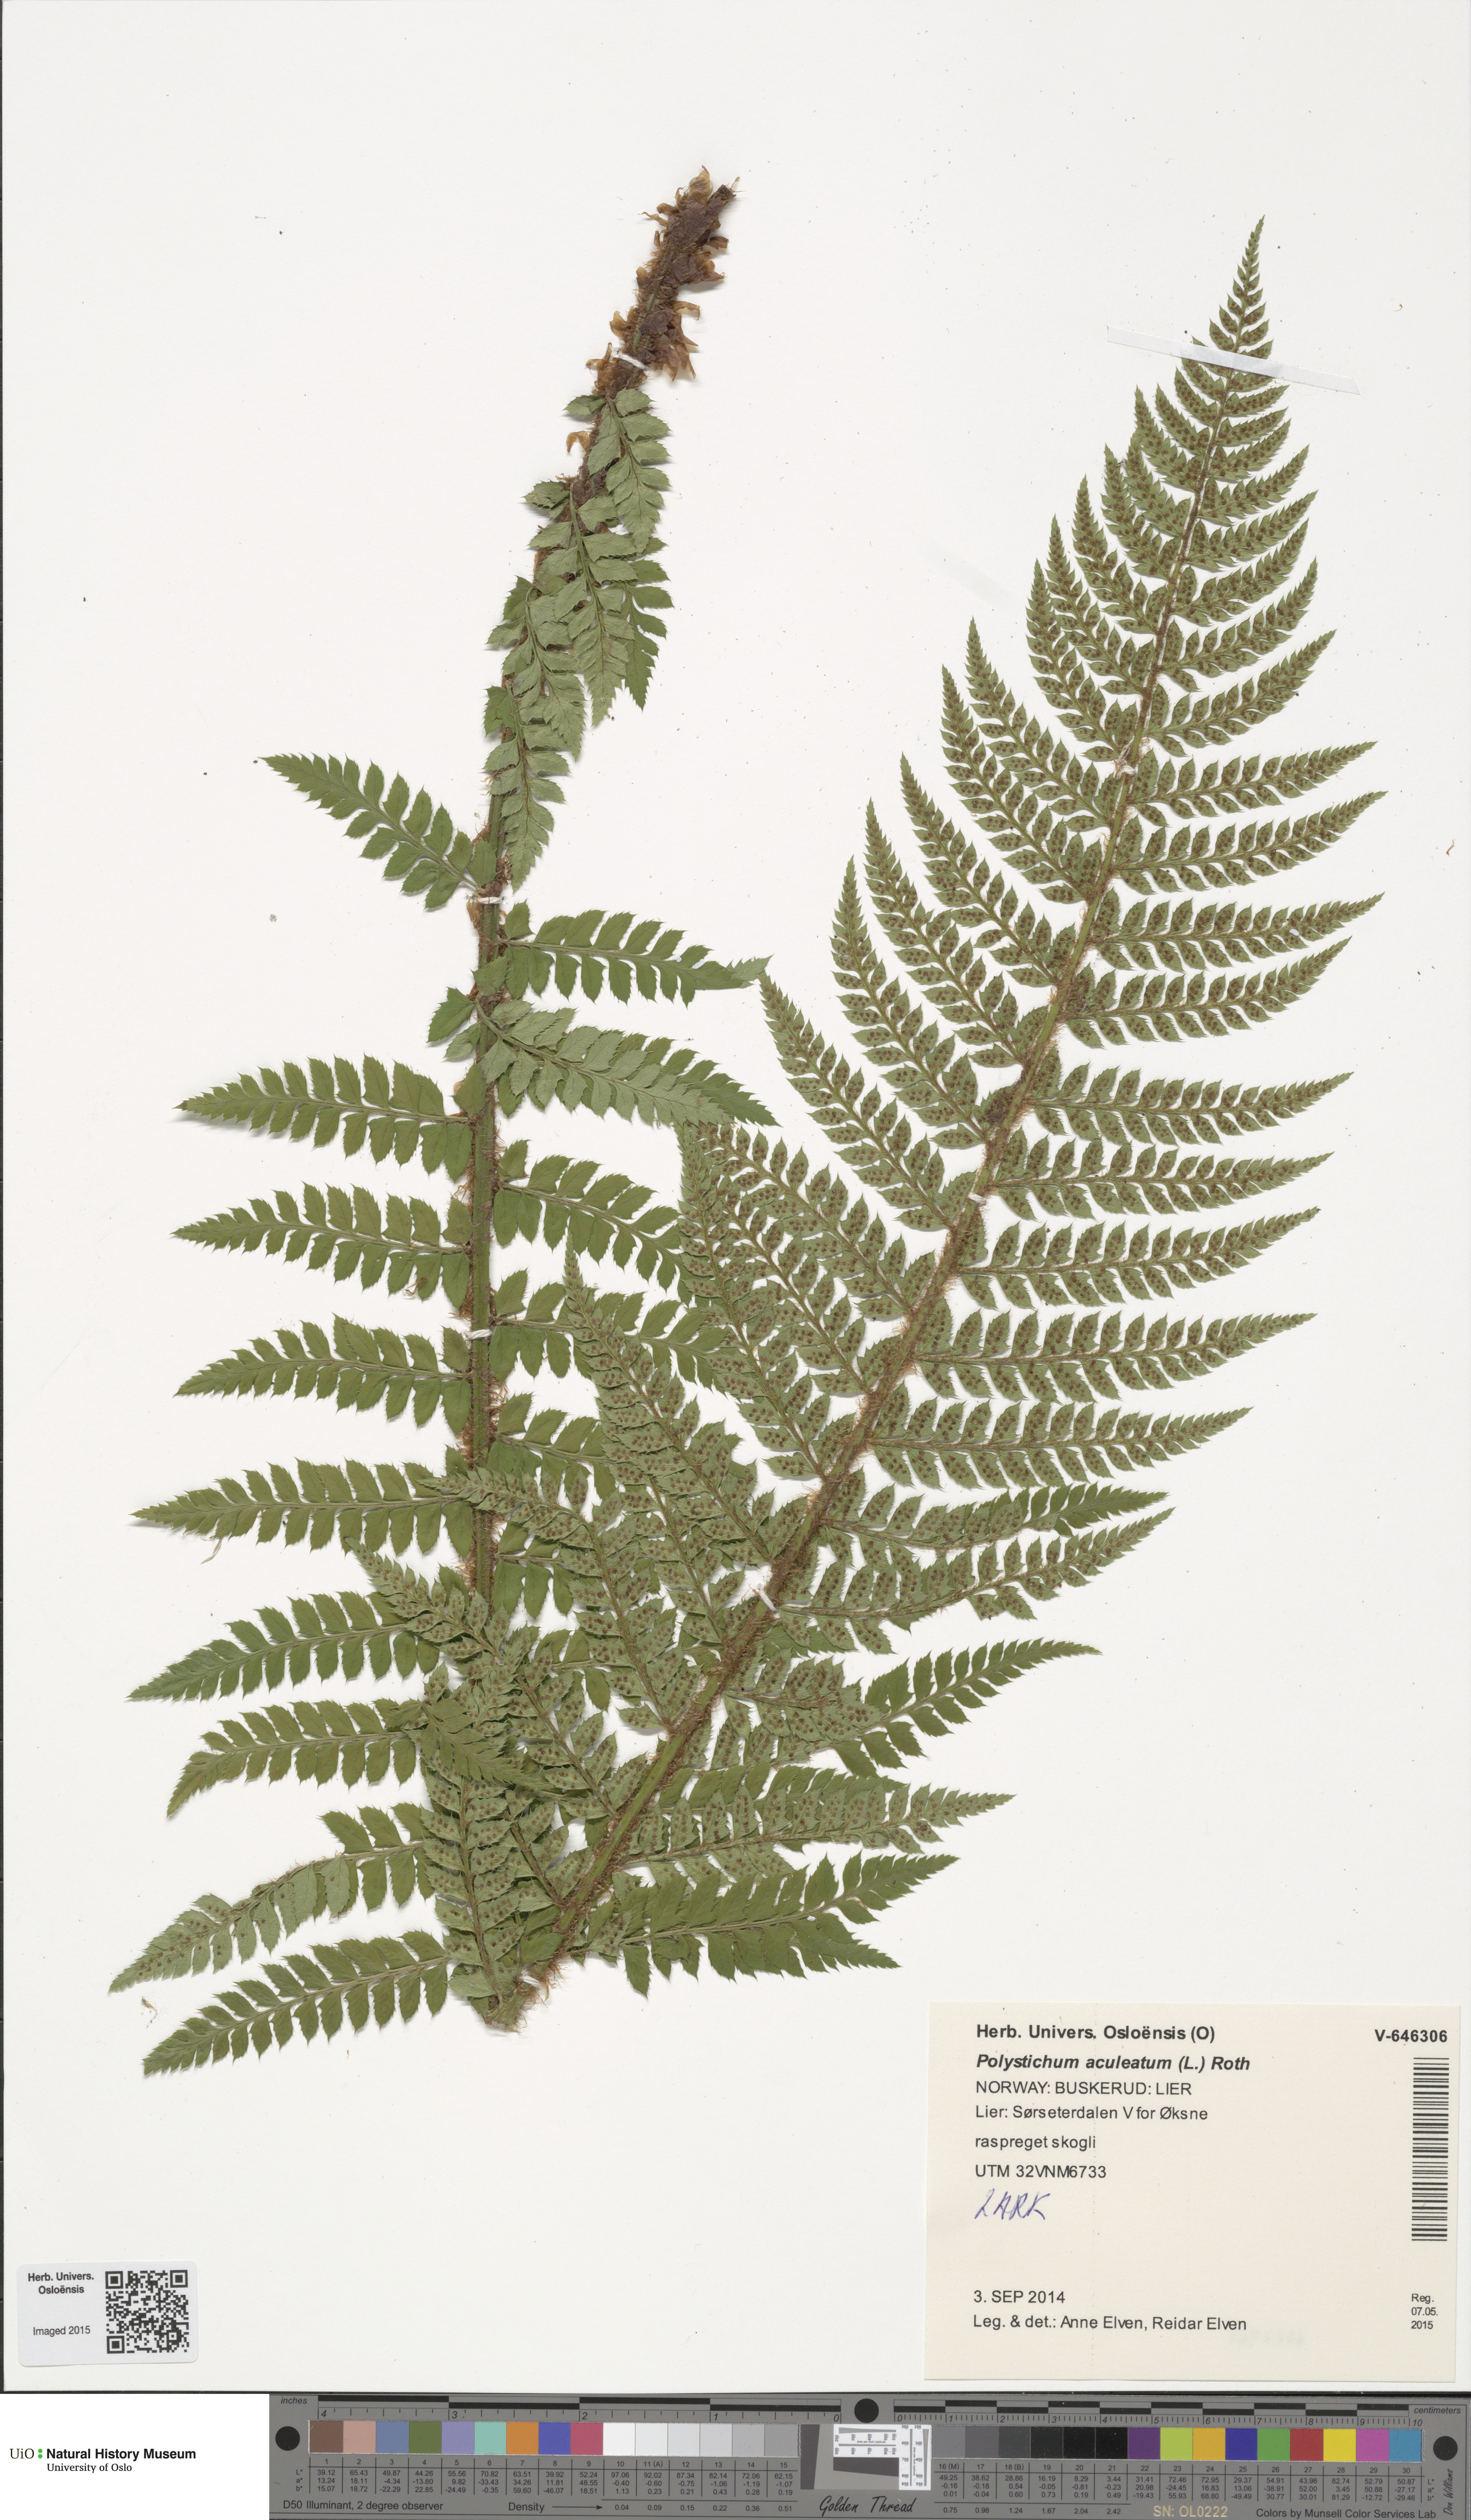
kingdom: Plantae
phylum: Tracheophyta
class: Polypodiopsida
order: Polypodiales
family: Dryopteridaceae
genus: Polystichum
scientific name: Polystichum aculeatum
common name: Hard shield-fern
